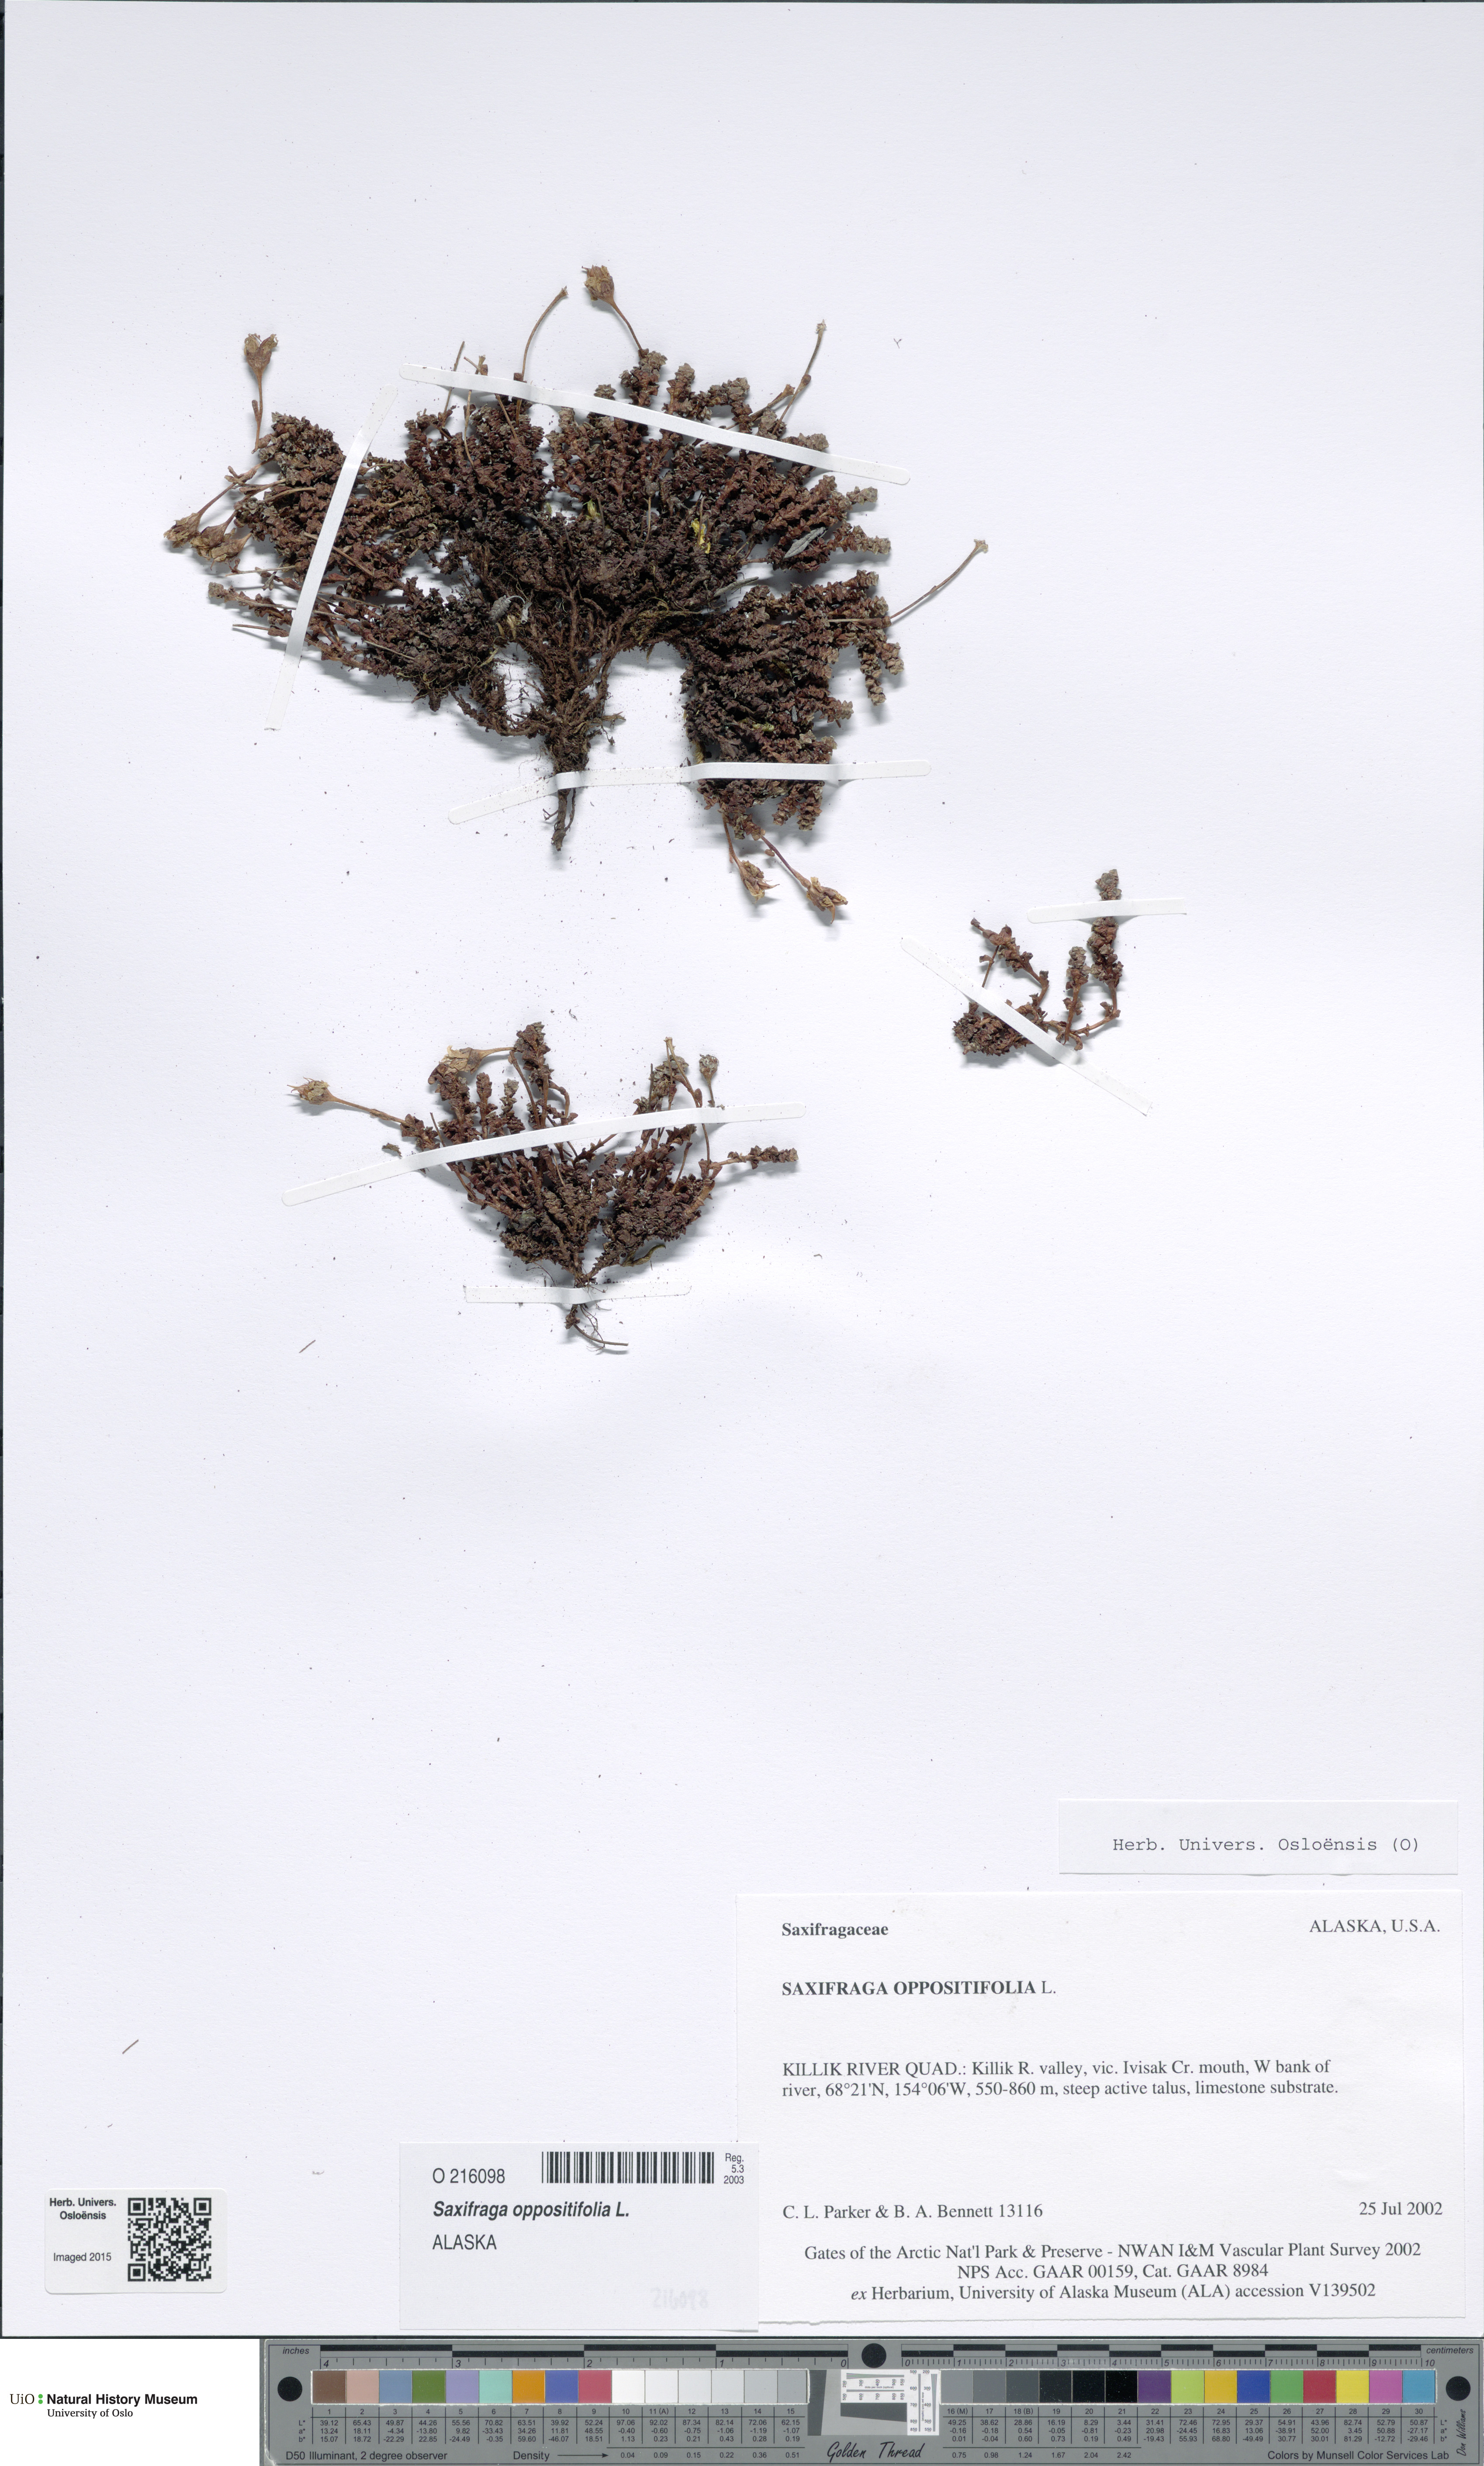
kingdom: Plantae
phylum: Tracheophyta
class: Magnoliopsida
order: Saxifragales
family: Saxifragaceae
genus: Saxifraga
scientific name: Saxifraga oppositifolia
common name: Purple saxifrage
